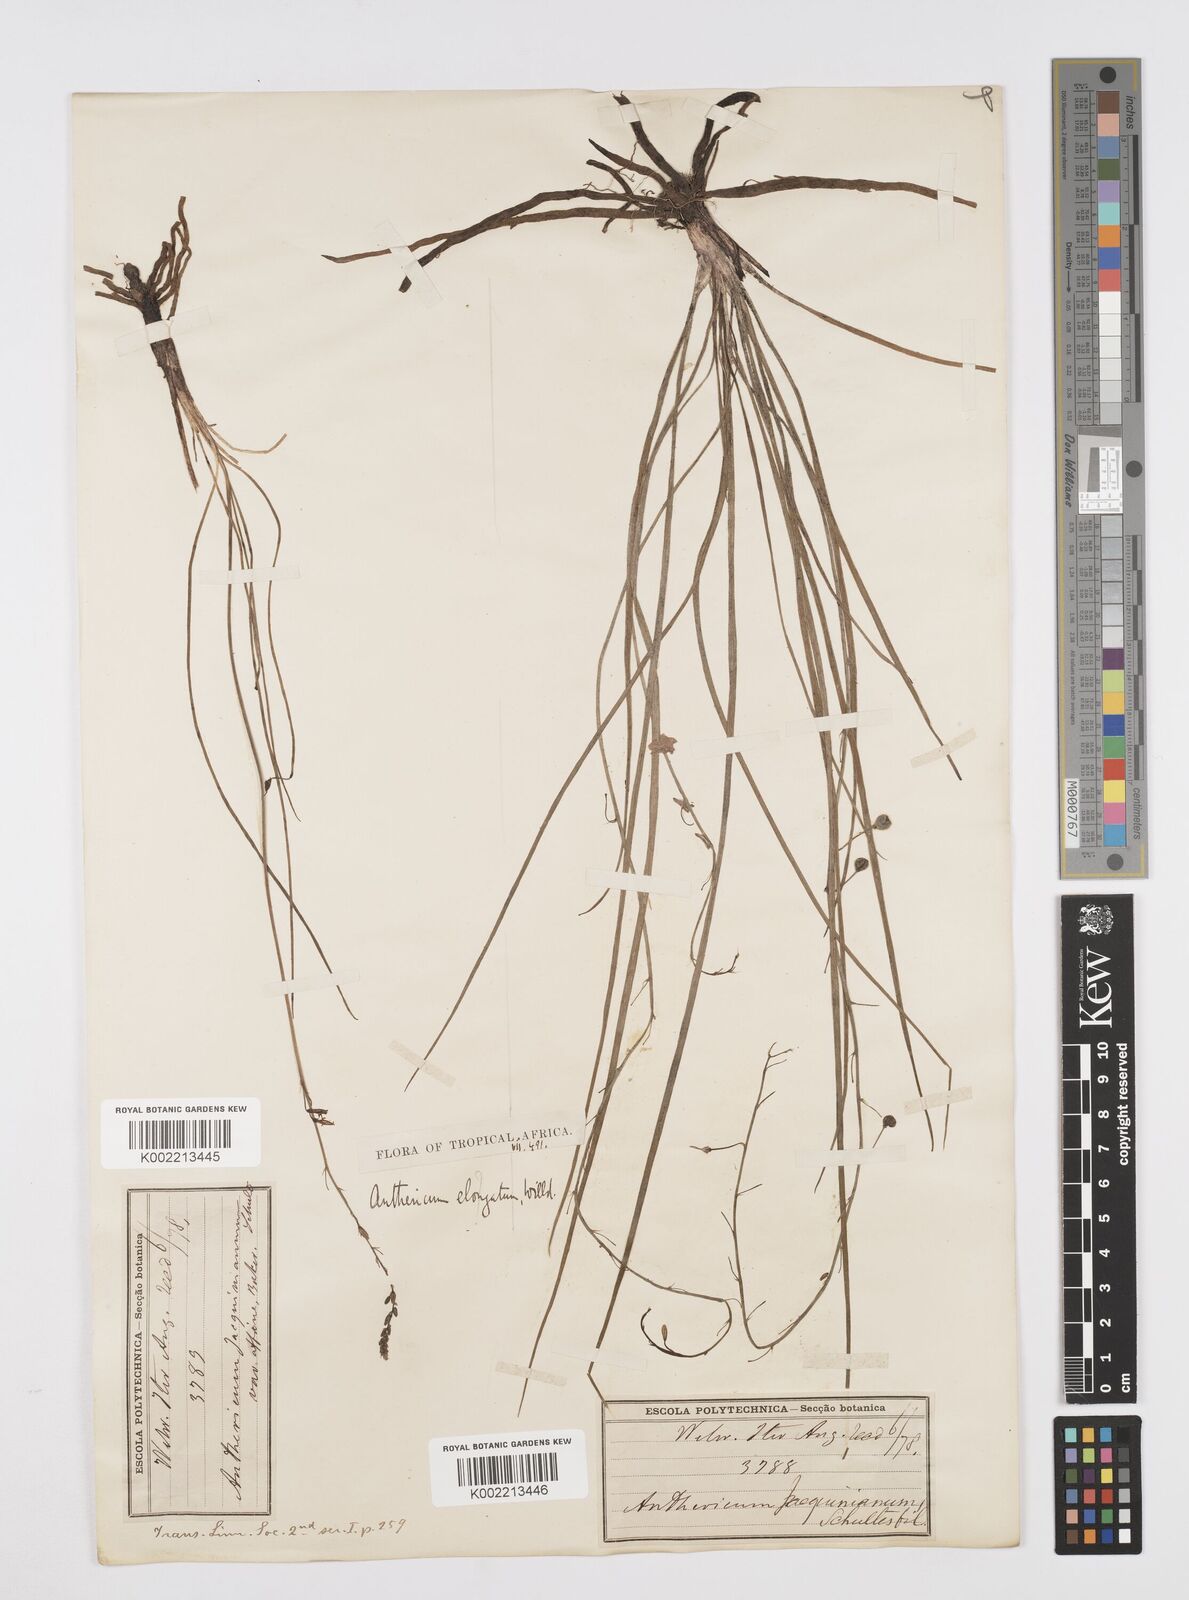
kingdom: Plantae
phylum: Tracheophyta
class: Liliopsida
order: Asparagales
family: Asphodelaceae
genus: Trachyandra
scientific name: Trachyandra saltii
